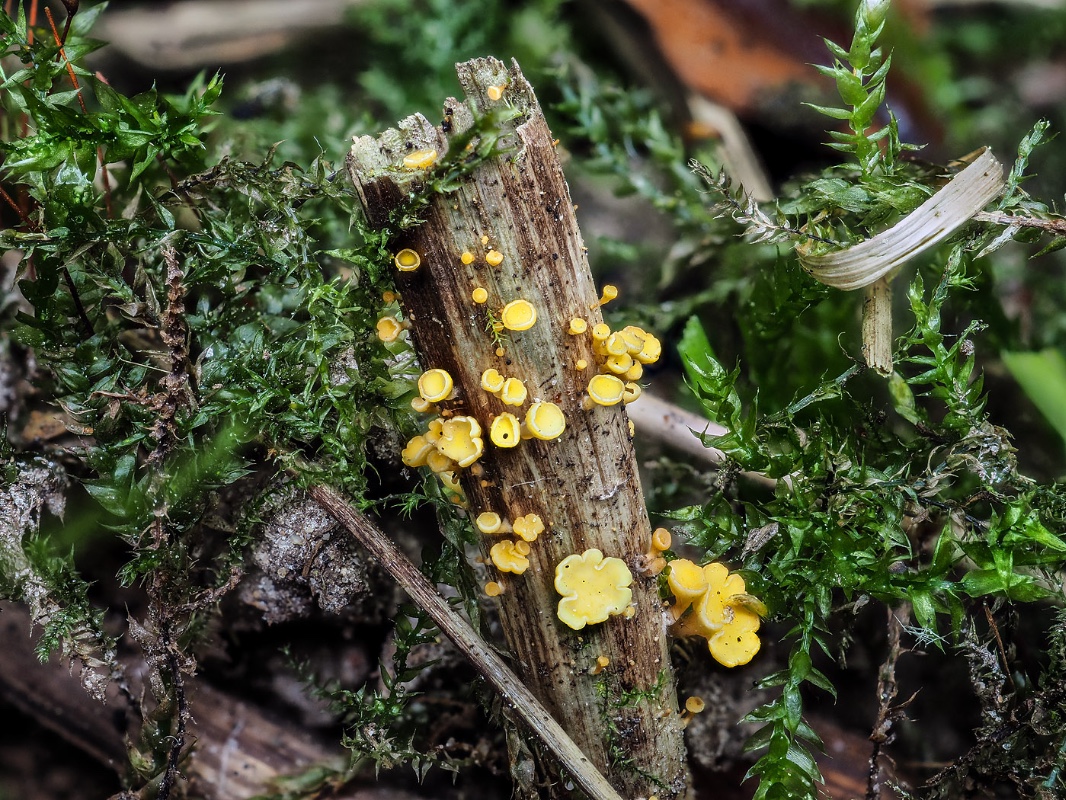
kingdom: Fungi
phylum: Ascomycota
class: Leotiomycetes
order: Helotiales
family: Helotiaceae
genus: Hymenoscyphus
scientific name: Hymenoscyphus repandus
